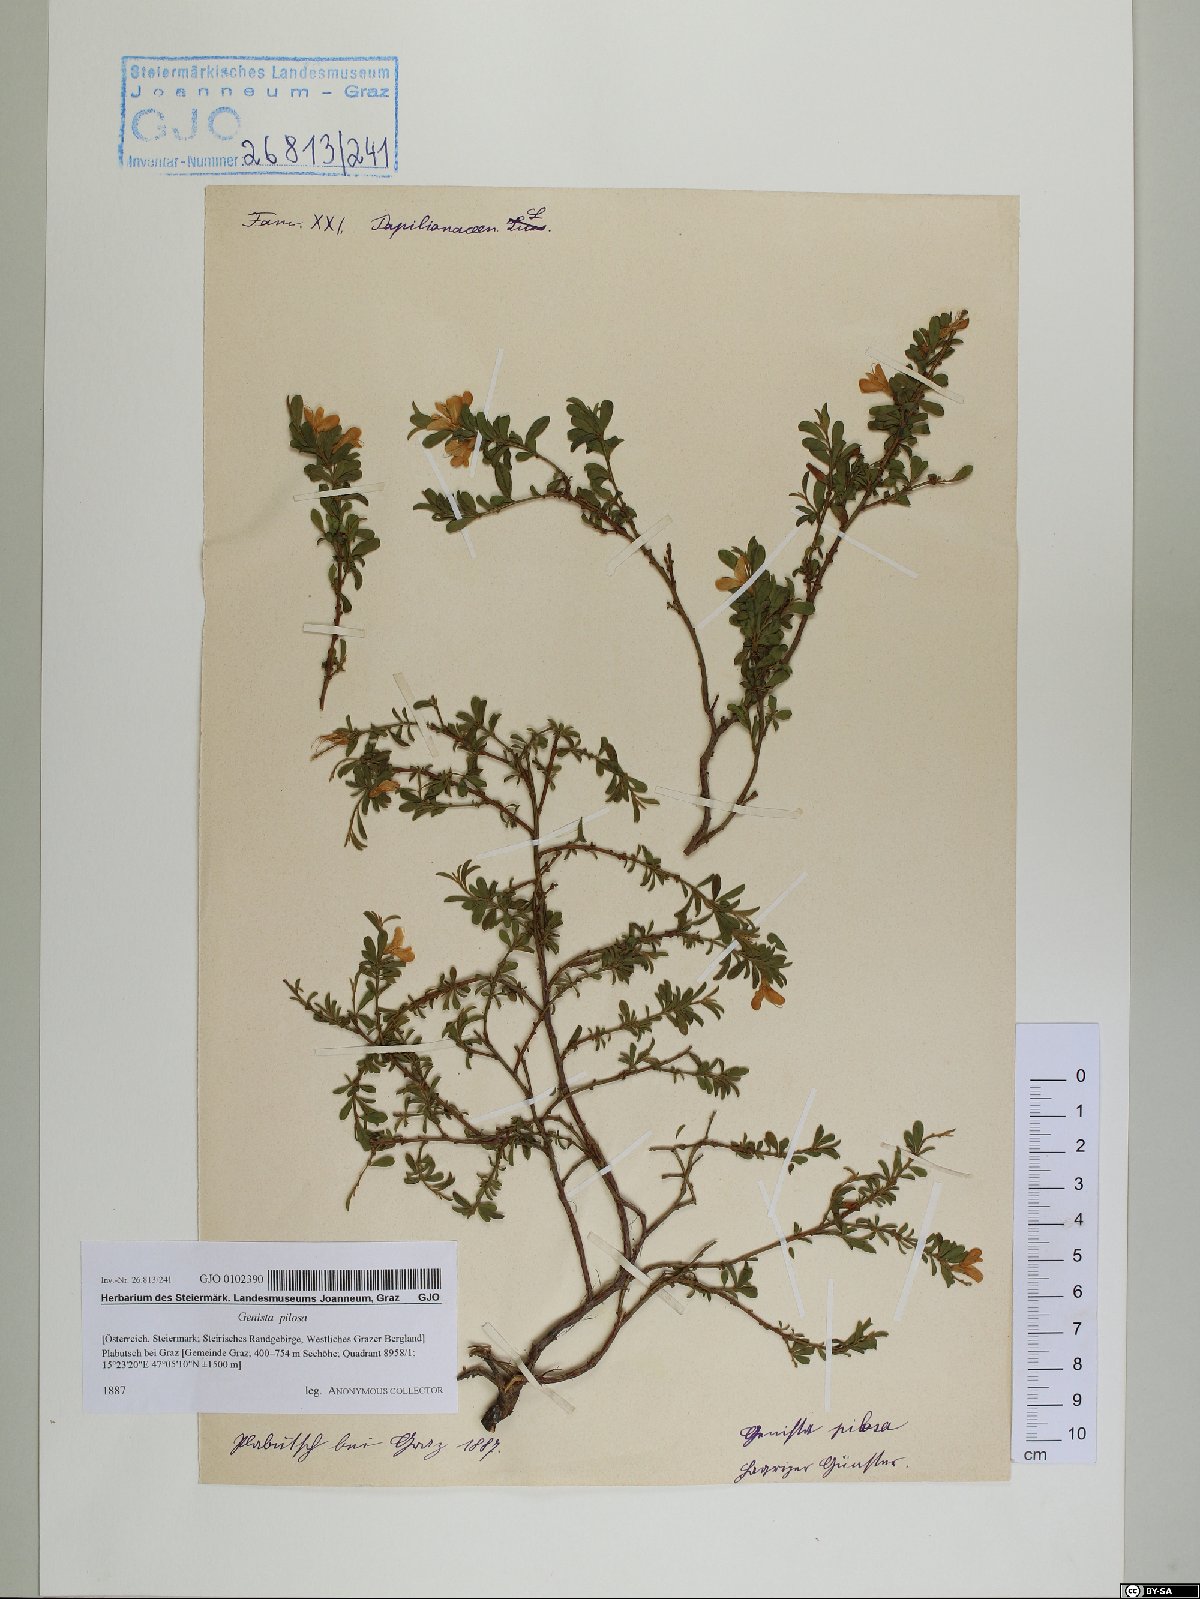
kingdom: Plantae
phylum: Tracheophyta
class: Magnoliopsida
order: Fabales
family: Fabaceae
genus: Genista
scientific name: Genista pilosa
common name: Hairy greenweed
